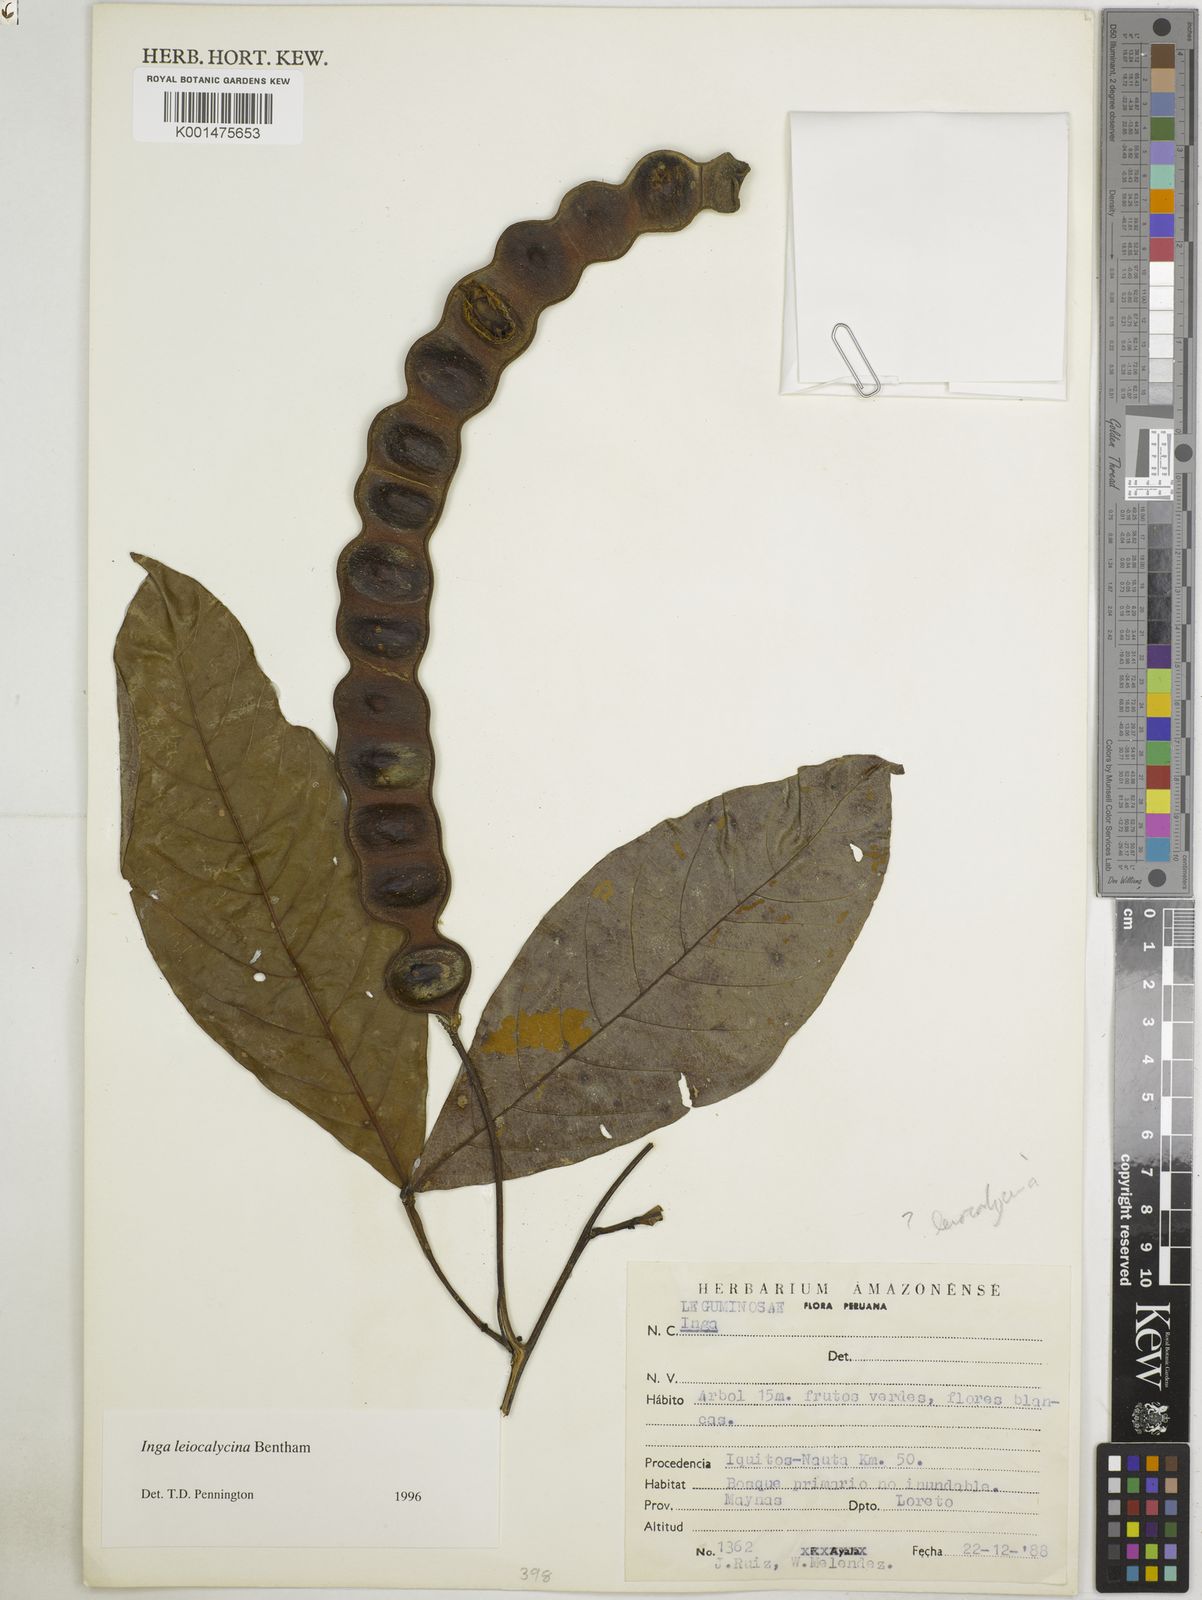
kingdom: Plantae
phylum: Tracheophyta
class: Magnoliopsida
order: Fabales
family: Fabaceae
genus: Inga
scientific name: Inga laevigata
